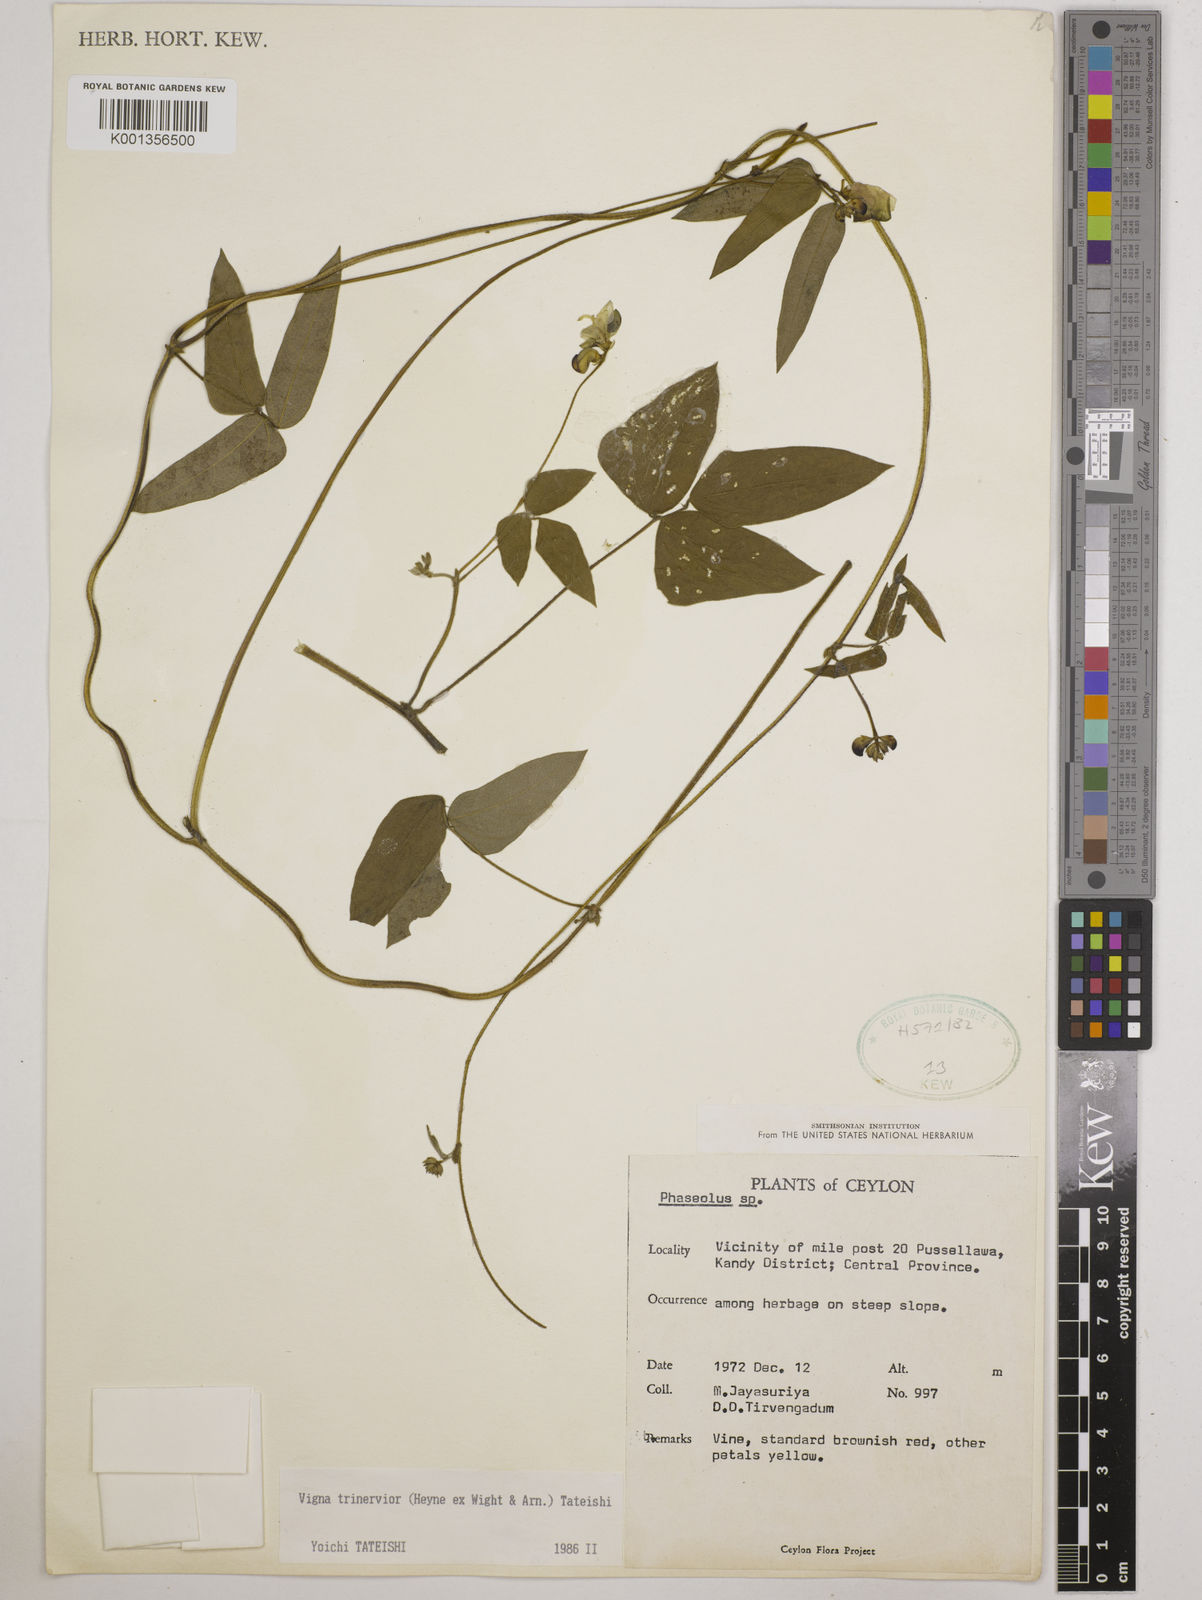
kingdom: Plantae
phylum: Tracheophyta
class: Magnoliopsida
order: Fabales
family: Fabaceae
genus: Vigna
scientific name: Vigna radiata
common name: Mung-bean
